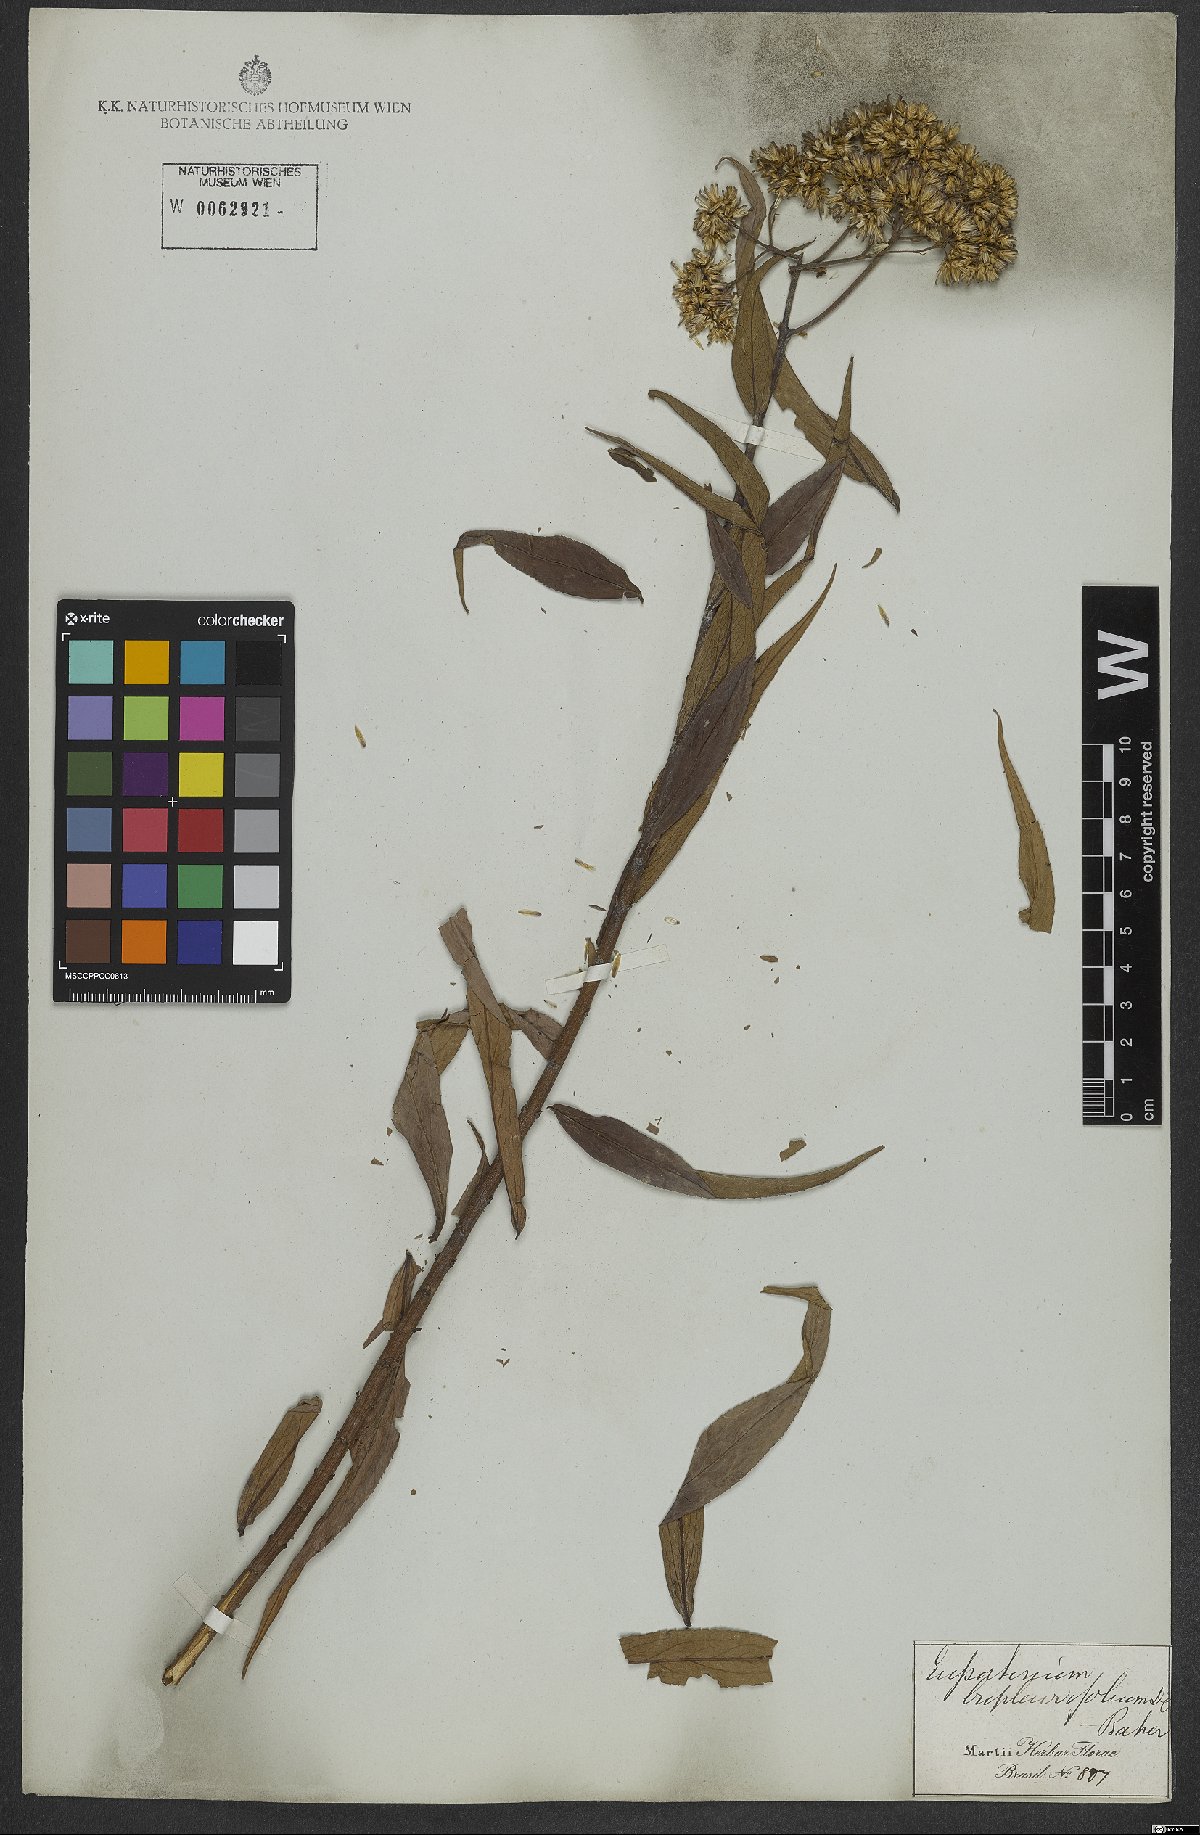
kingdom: Plantae
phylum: Tracheophyta
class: Magnoliopsida
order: Asterales
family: Asteraceae
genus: Campovassouria
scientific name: Campovassouria cruciata
